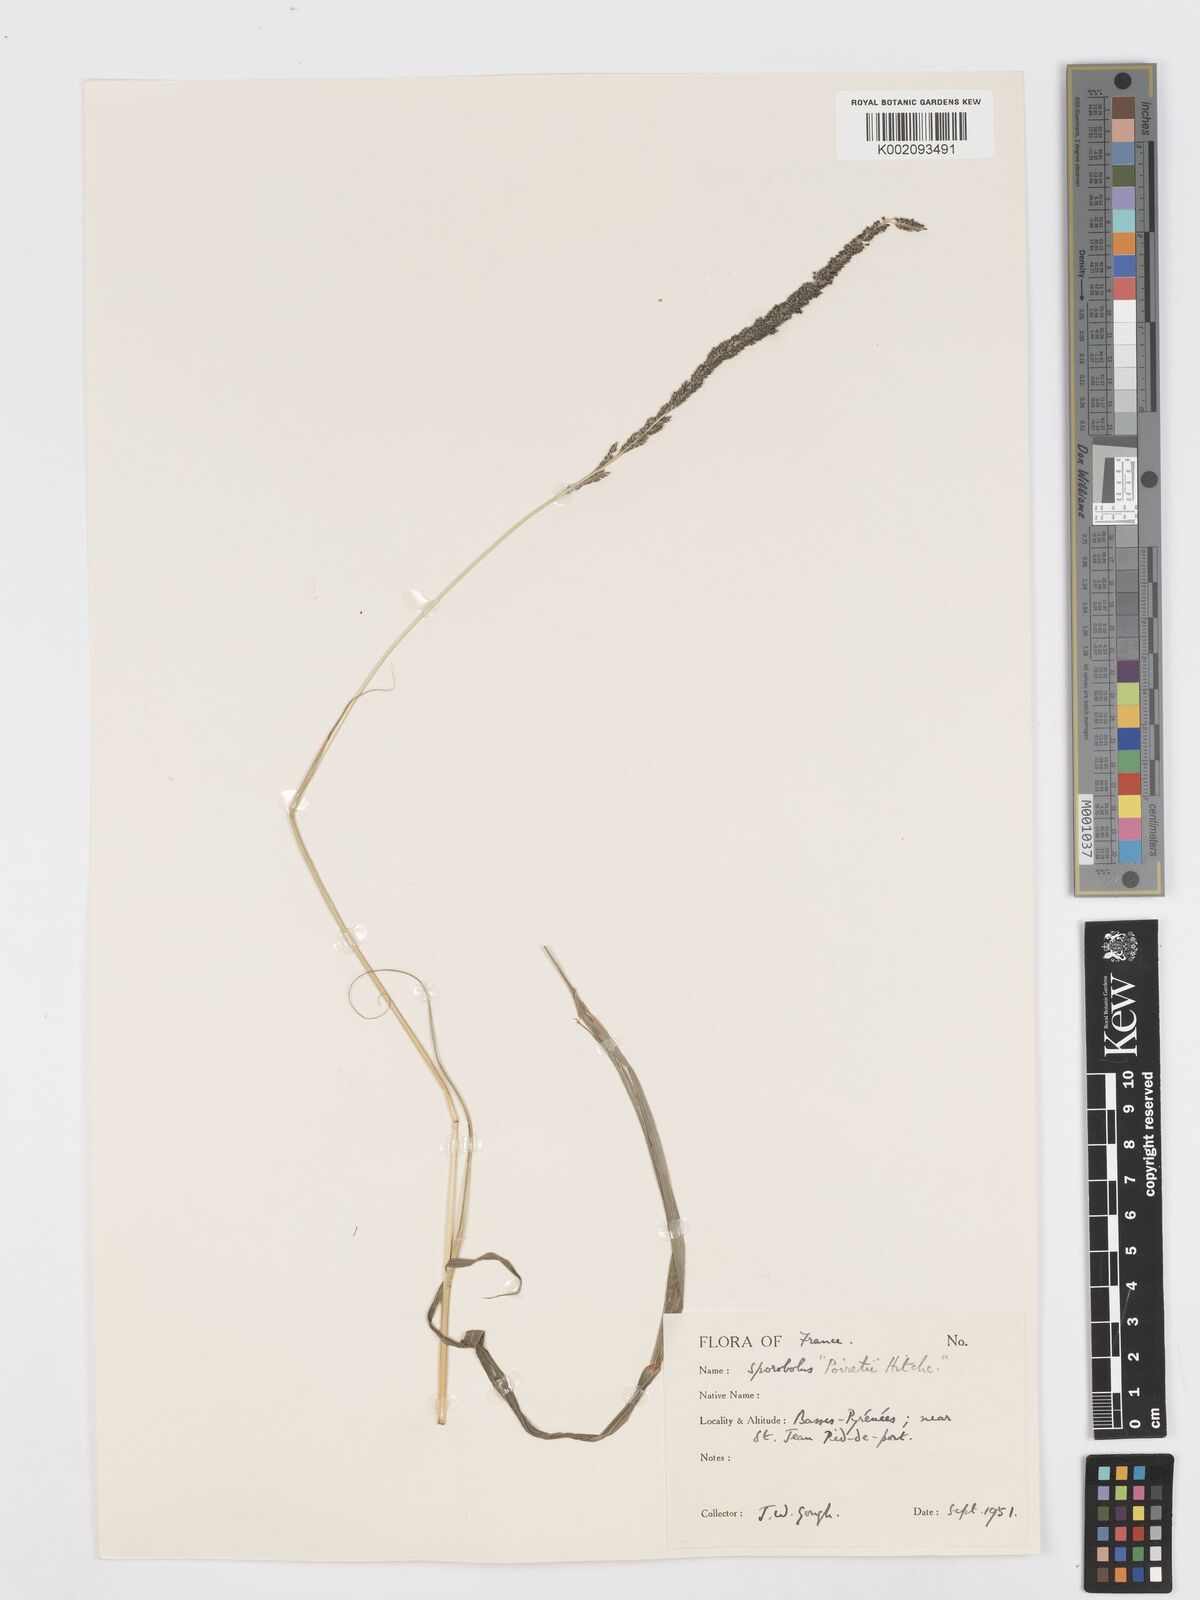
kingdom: Plantae
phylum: Tracheophyta
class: Liliopsida
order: Poales
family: Poaceae
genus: Sporobolus
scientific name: Sporobolus indicus
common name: Smut grass
